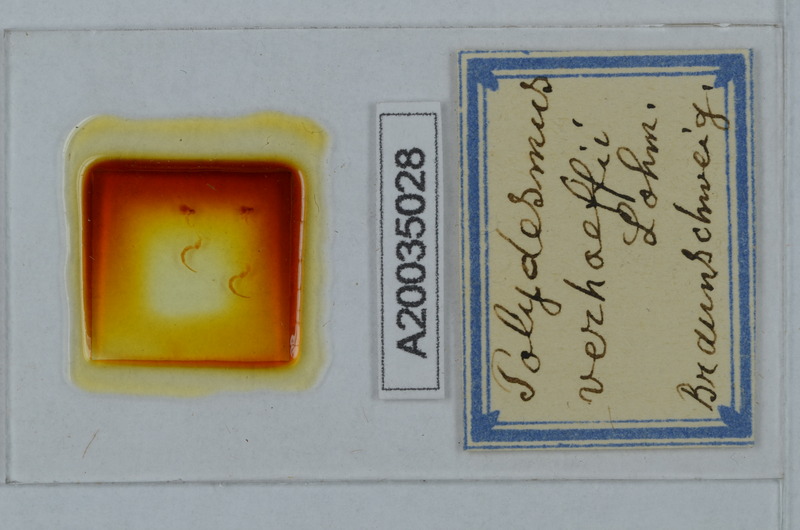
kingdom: Animalia
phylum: Arthropoda
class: Diplopoda
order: Polydesmida
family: Polydesmidae
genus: Polydesmus
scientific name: Polydesmus angustus
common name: Flat millipede
